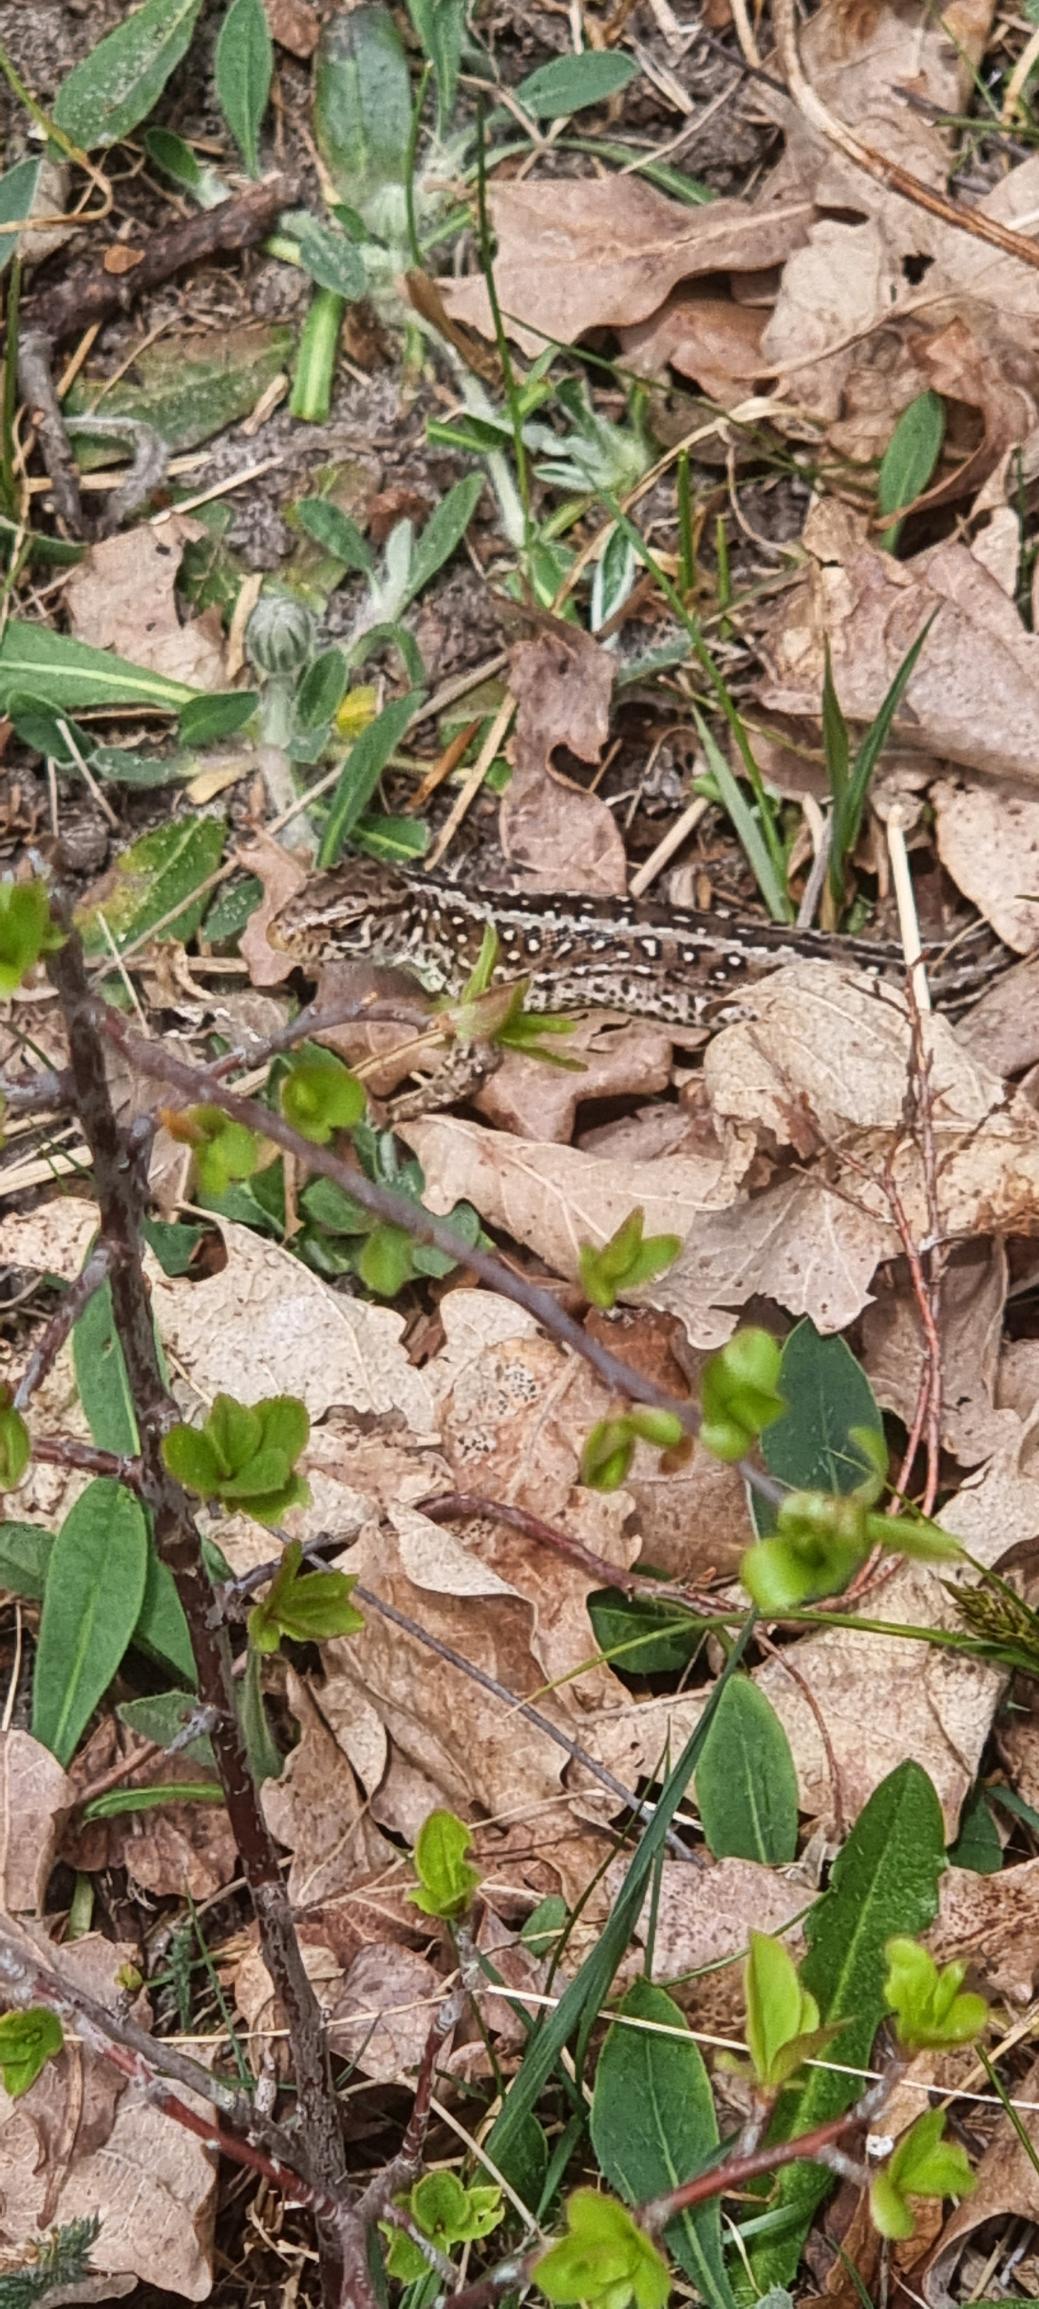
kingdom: Animalia
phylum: Chordata
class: Squamata
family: Lacertidae
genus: Lacerta
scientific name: Lacerta agilis
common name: Markfirben
